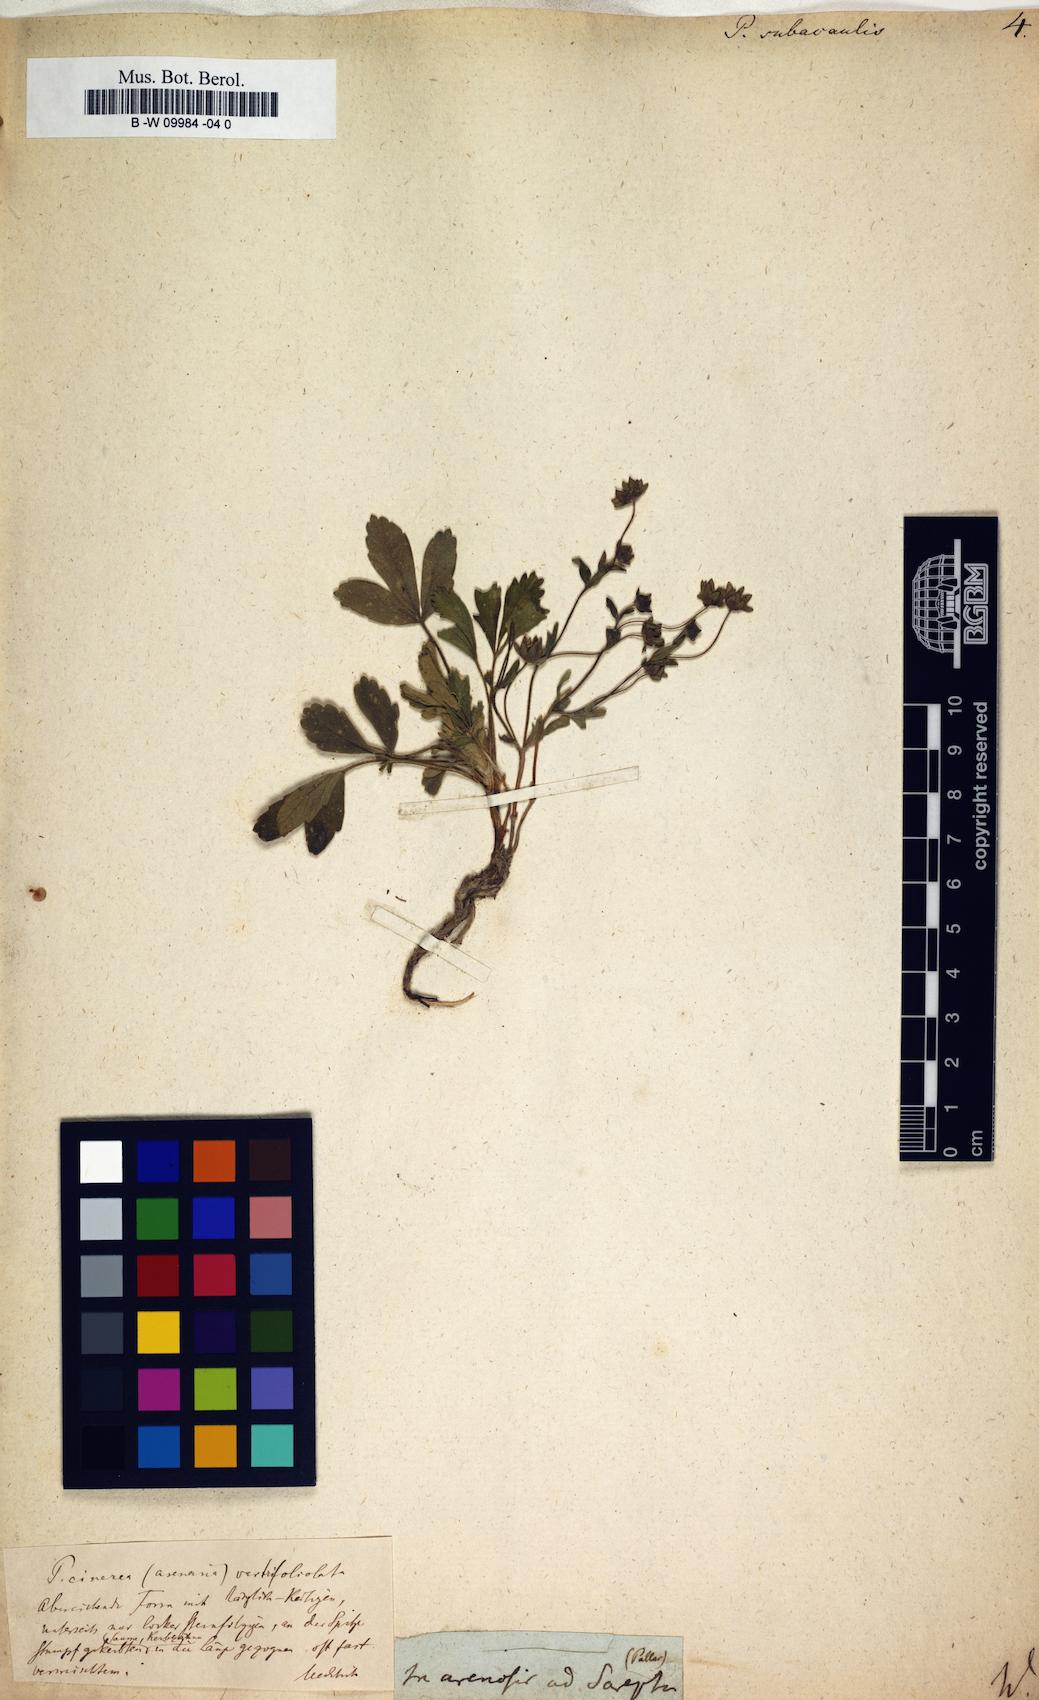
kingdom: Plantae
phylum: Tracheophyta
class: Magnoliopsida
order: Rosales
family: Rosaceae
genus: Potentilla
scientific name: Potentilla cinerea
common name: Ashy cinquefoil
